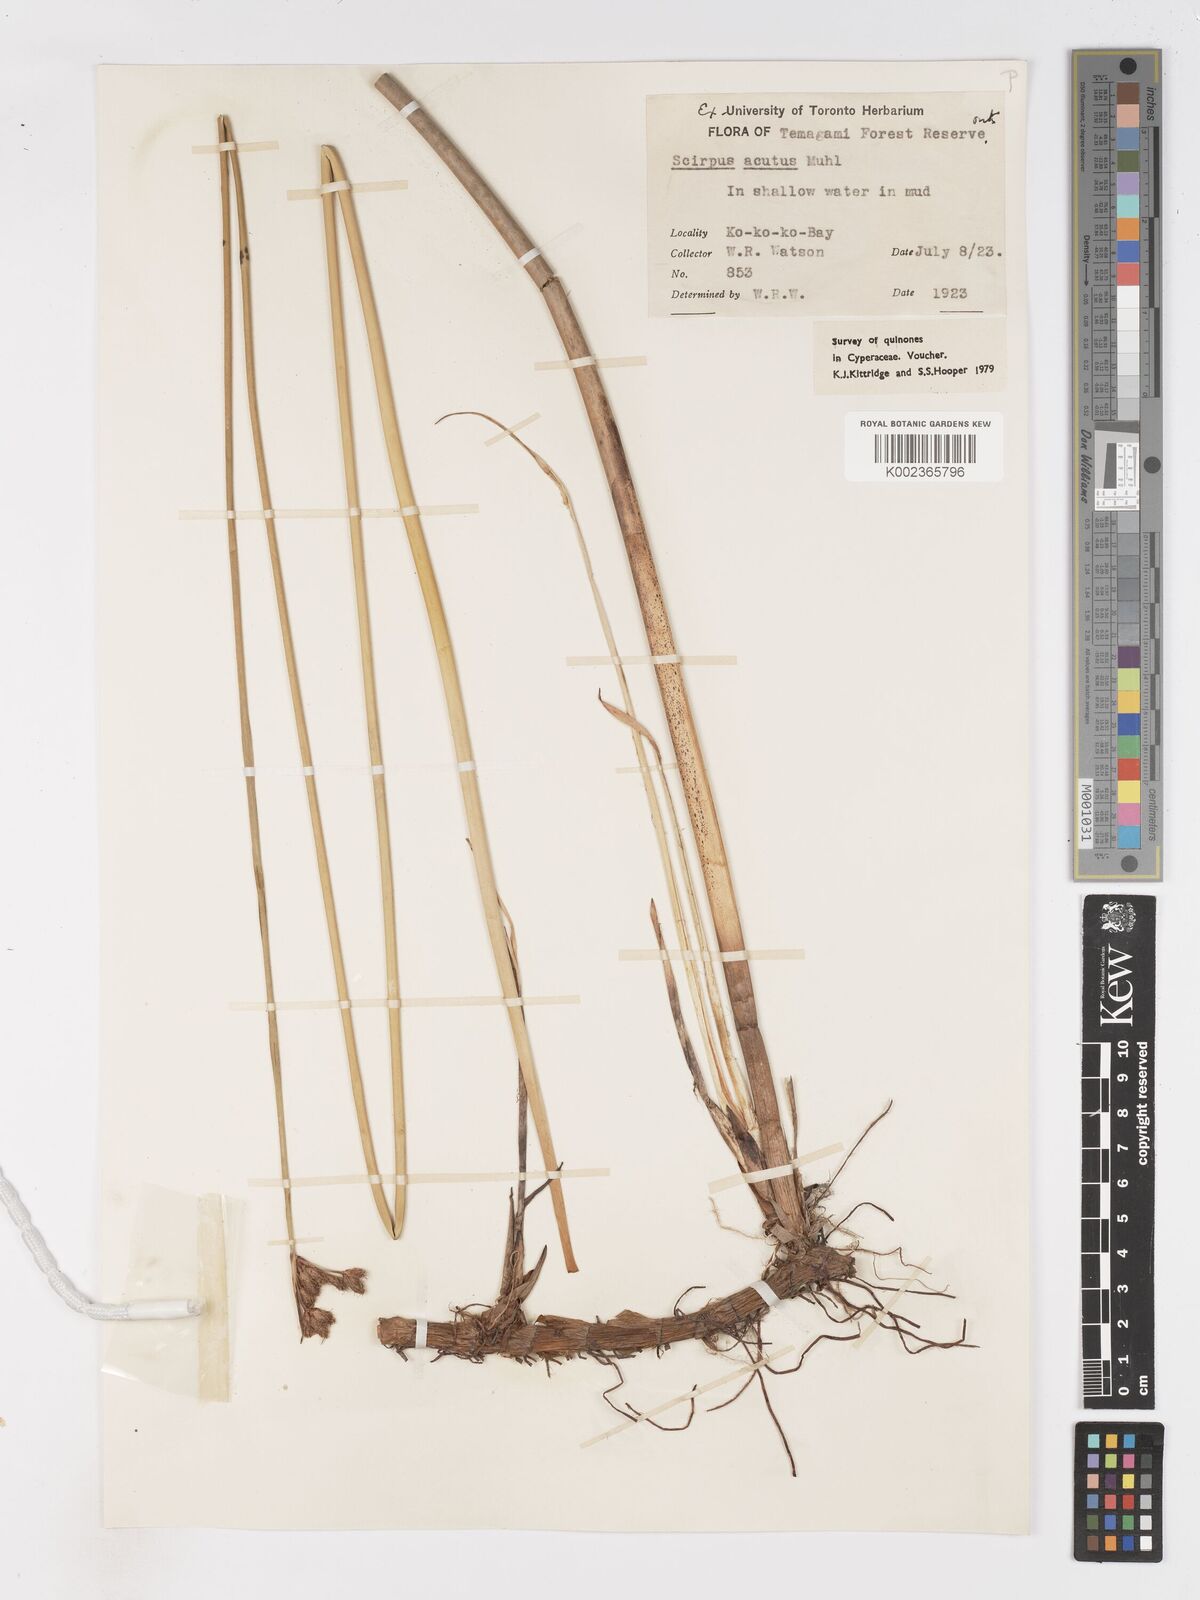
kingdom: Plantae
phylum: Tracheophyta
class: Liliopsida
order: Poales
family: Cyperaceae
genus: Schoenoplectus
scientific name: Schoenoplectus lacustris
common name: Common club-rush
